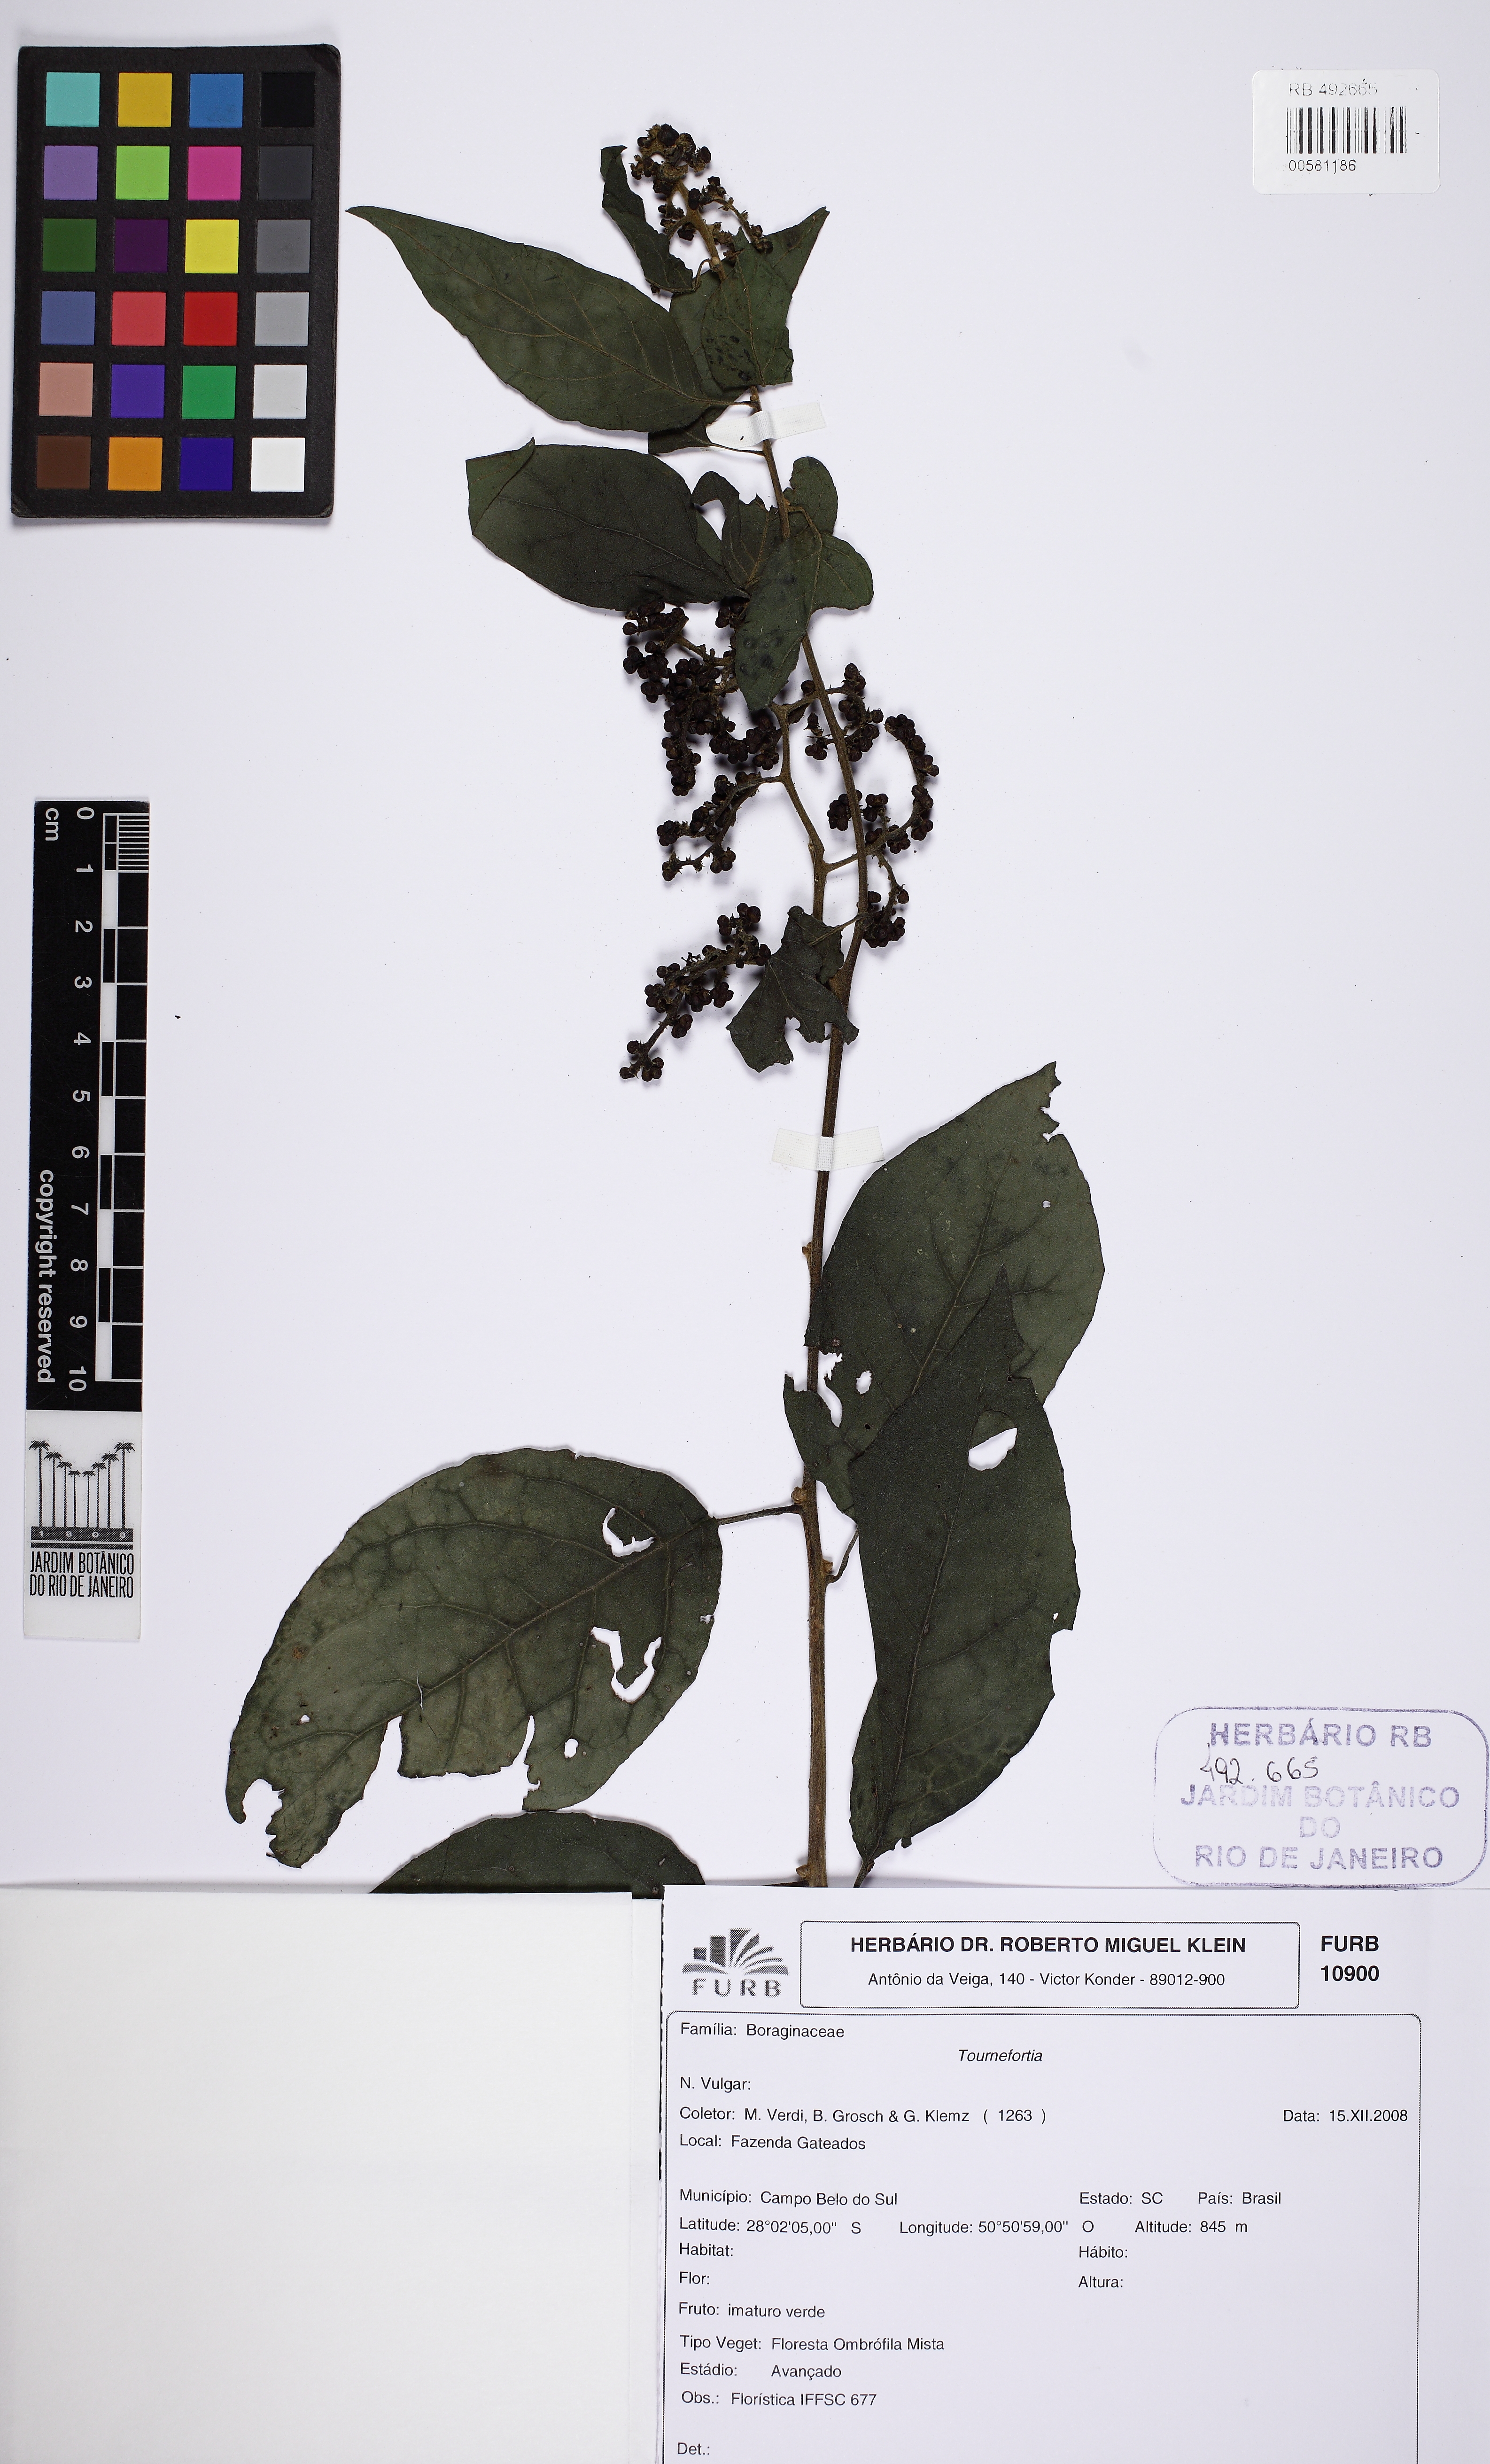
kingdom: Plantae
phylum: Tracheophyta
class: Magnoliopsida
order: Boraginales
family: Heliotropiaceae
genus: Myriopus
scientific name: Myriopus paniculatus
